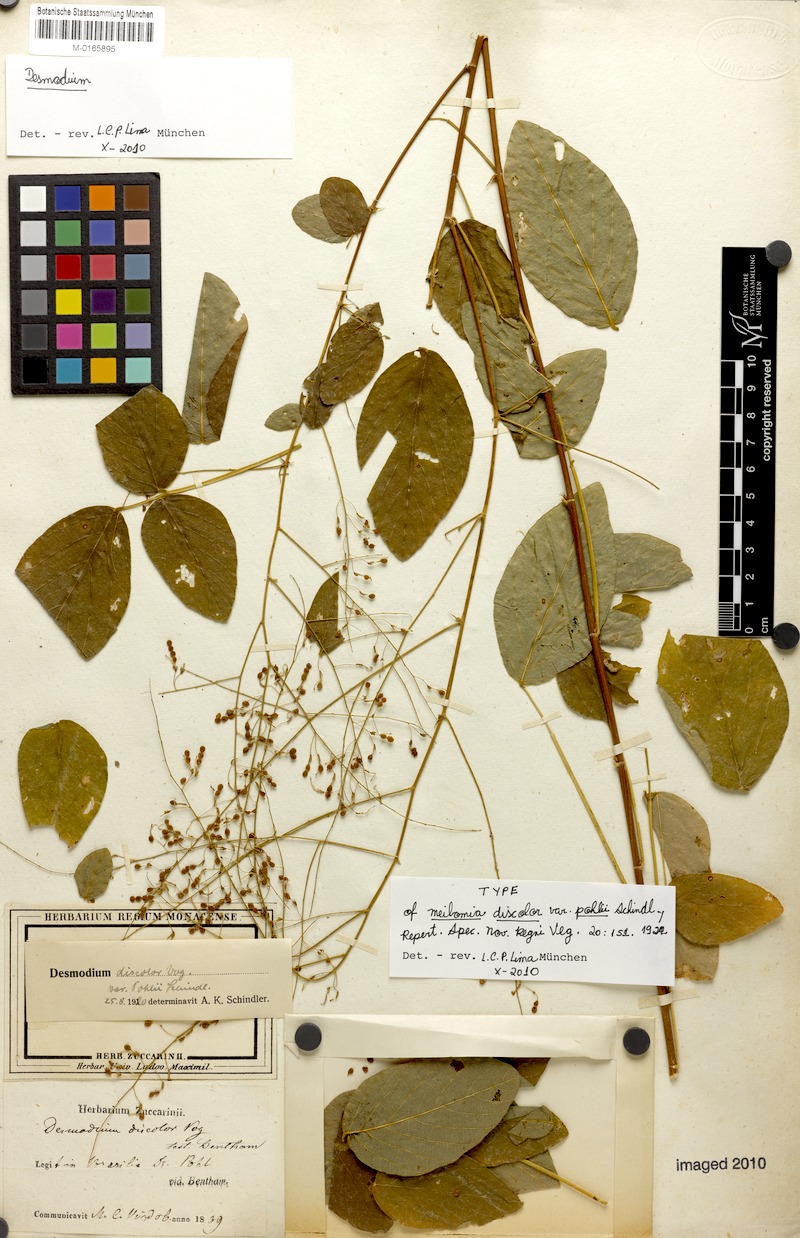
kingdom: Plantae
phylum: Tracheophyta
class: Magnoliopsida
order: Fabales
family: Fabaceae
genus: Desmodium
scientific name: Desmodium subsecundum
